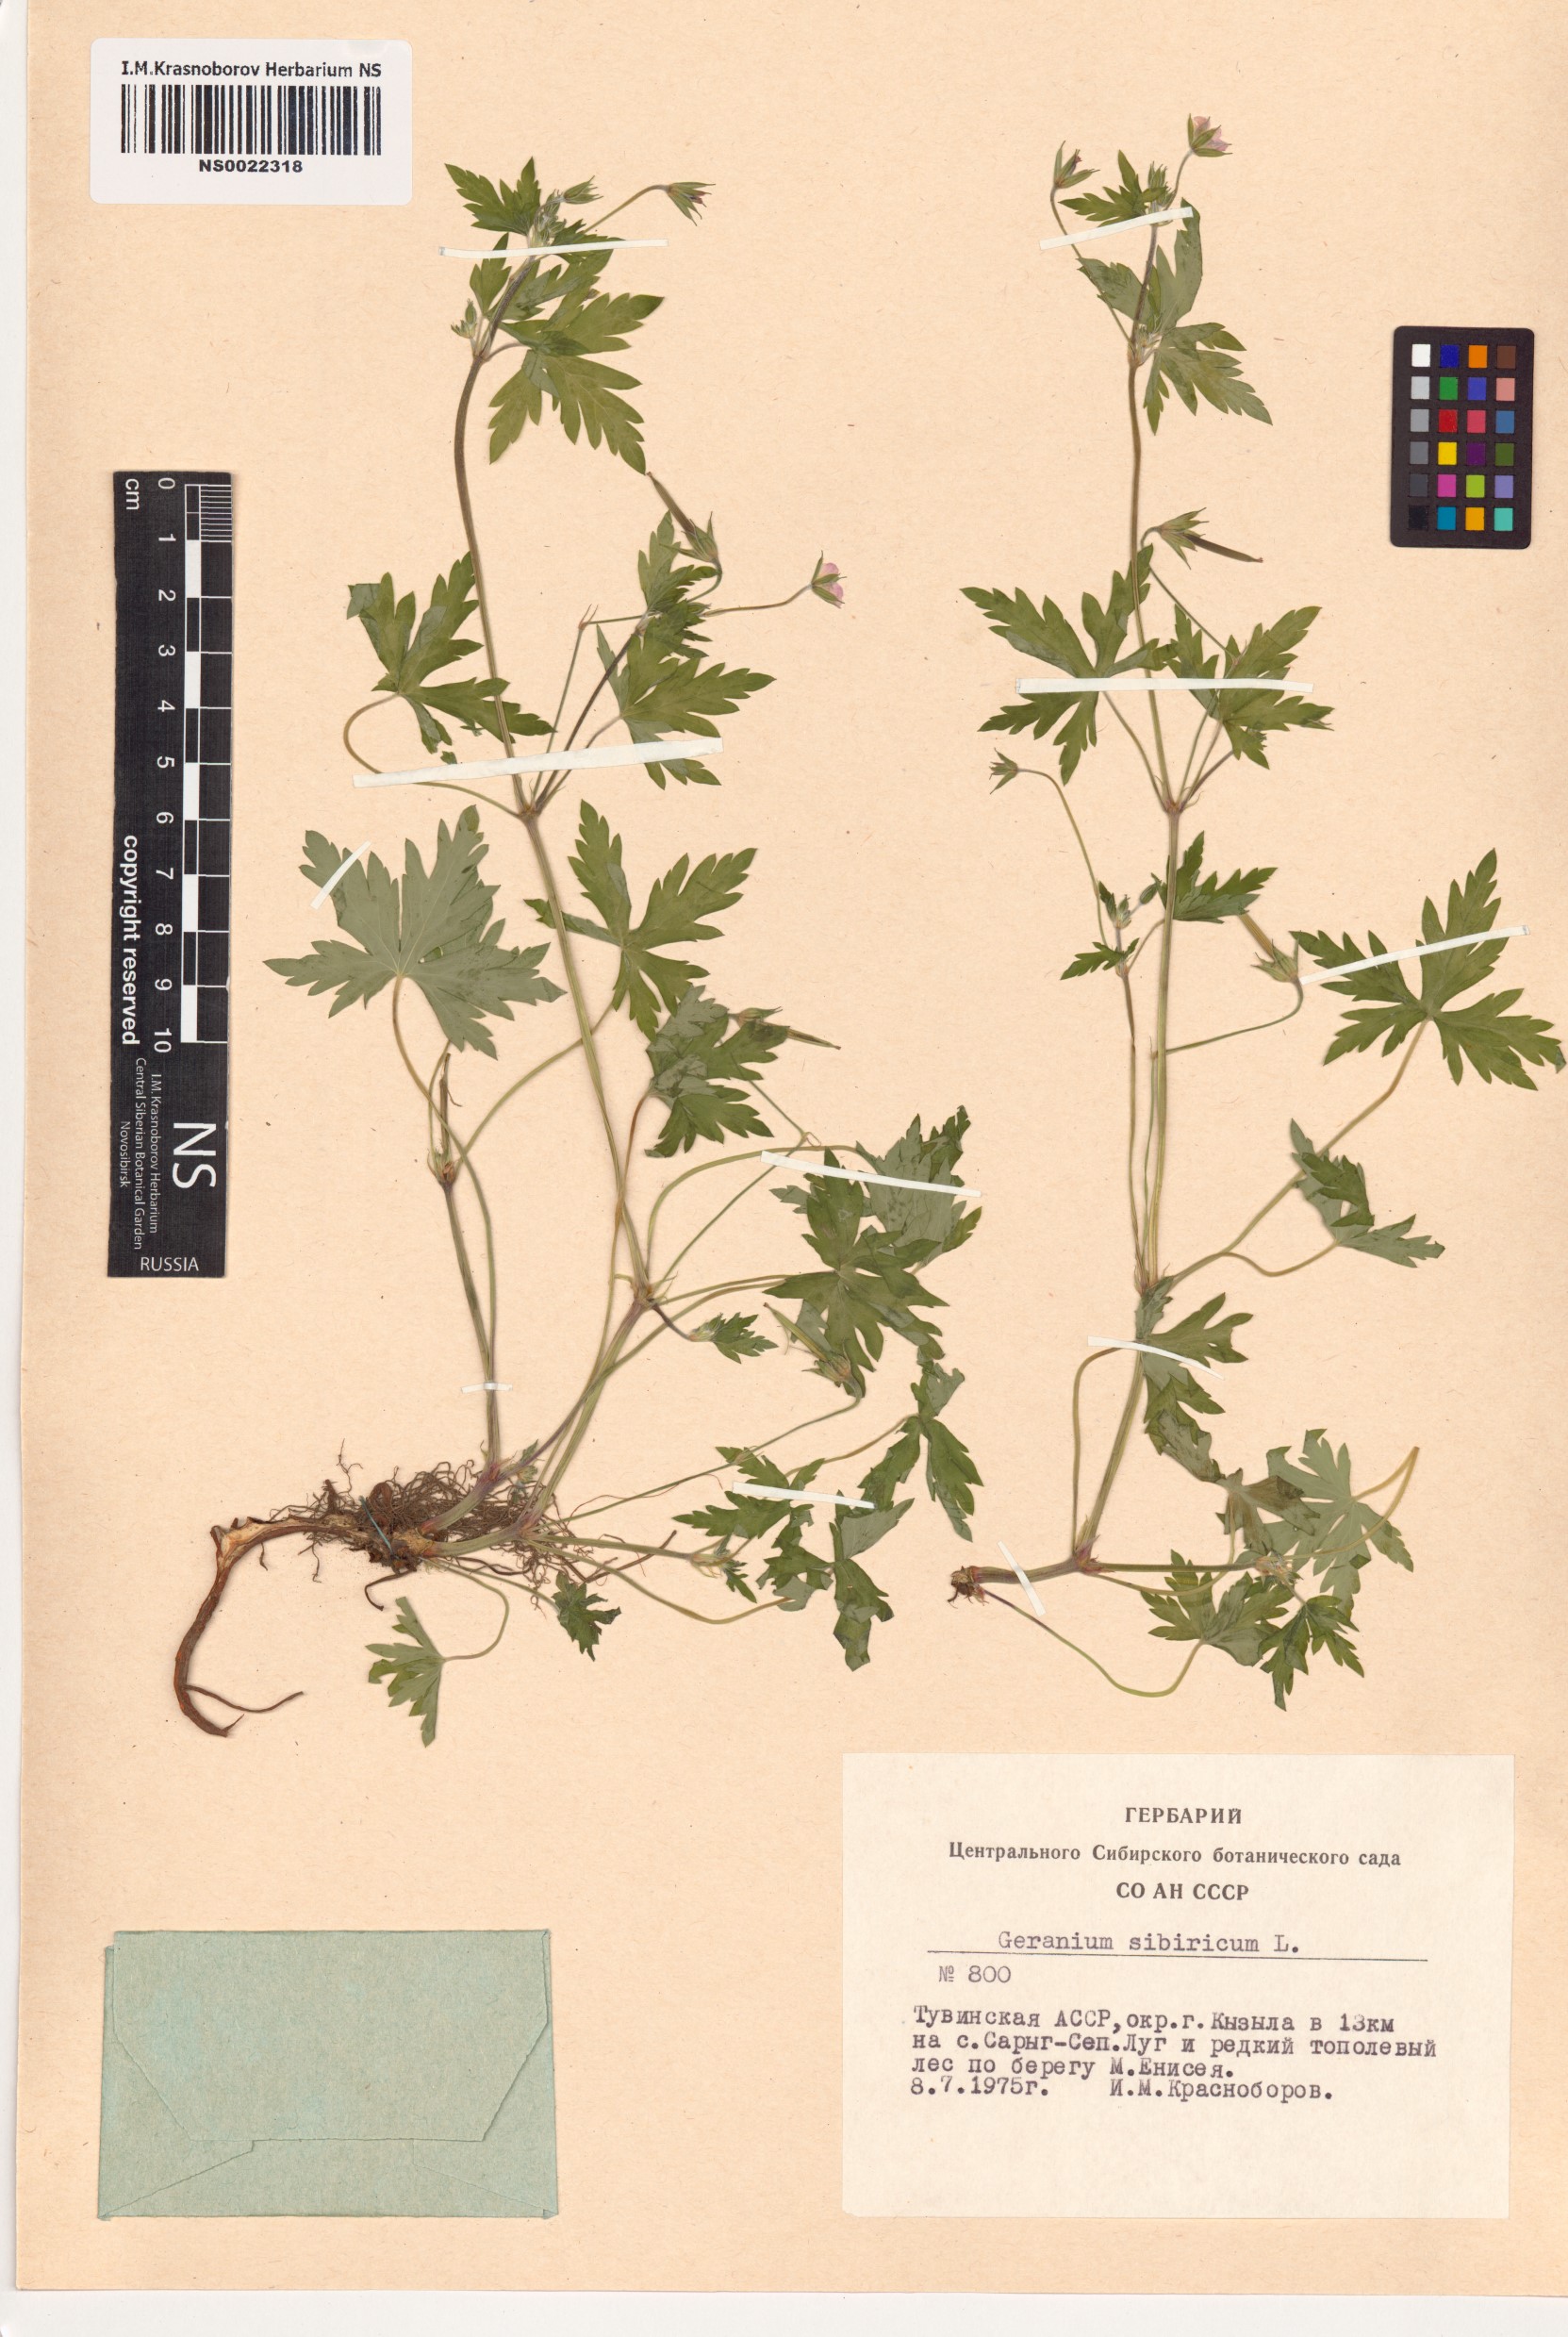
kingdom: Plantae
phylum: Tracheophyta
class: Magnoliopsida
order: Geraniales
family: Geraniaceae
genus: Geranium
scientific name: Geranium sibiricum
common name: Siberian crane's-bill
